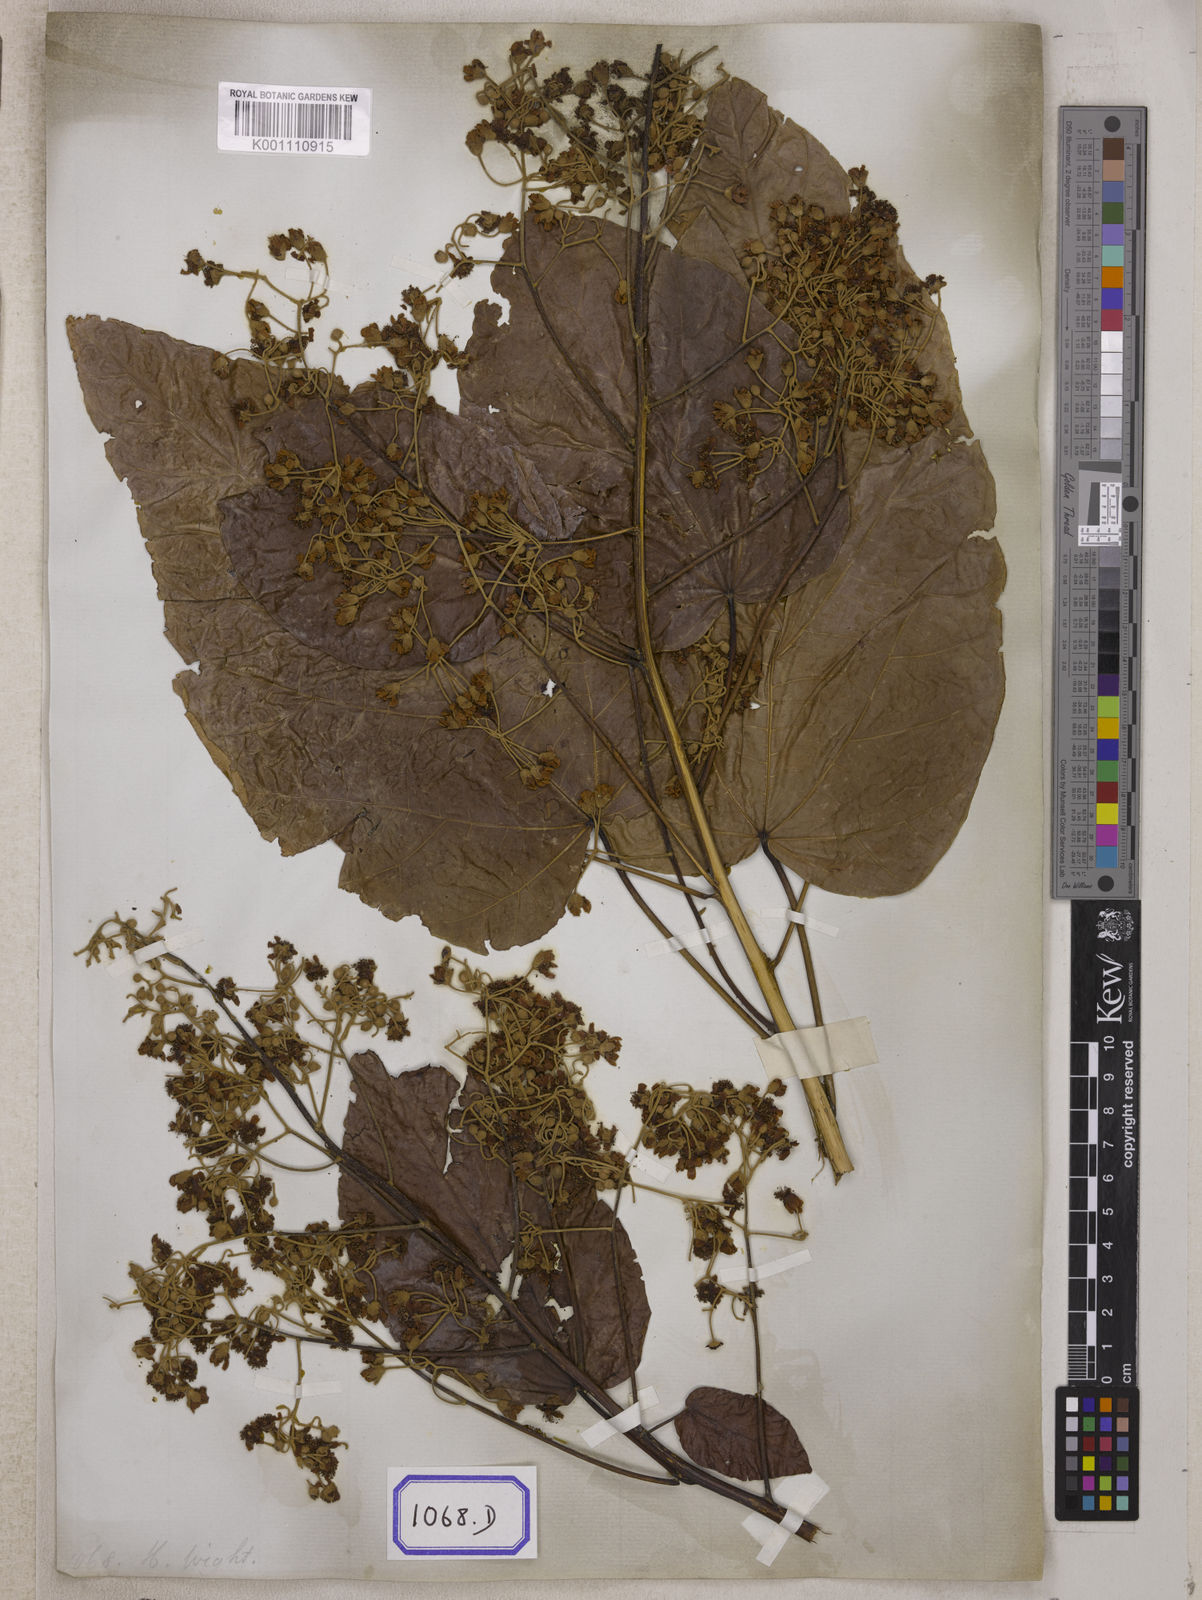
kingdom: Plantae
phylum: Tracheophyta
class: Magnoliopsida
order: Malvales
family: Malvaceae
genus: Berrya
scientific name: Berrya cordifolia
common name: Trincomalee
